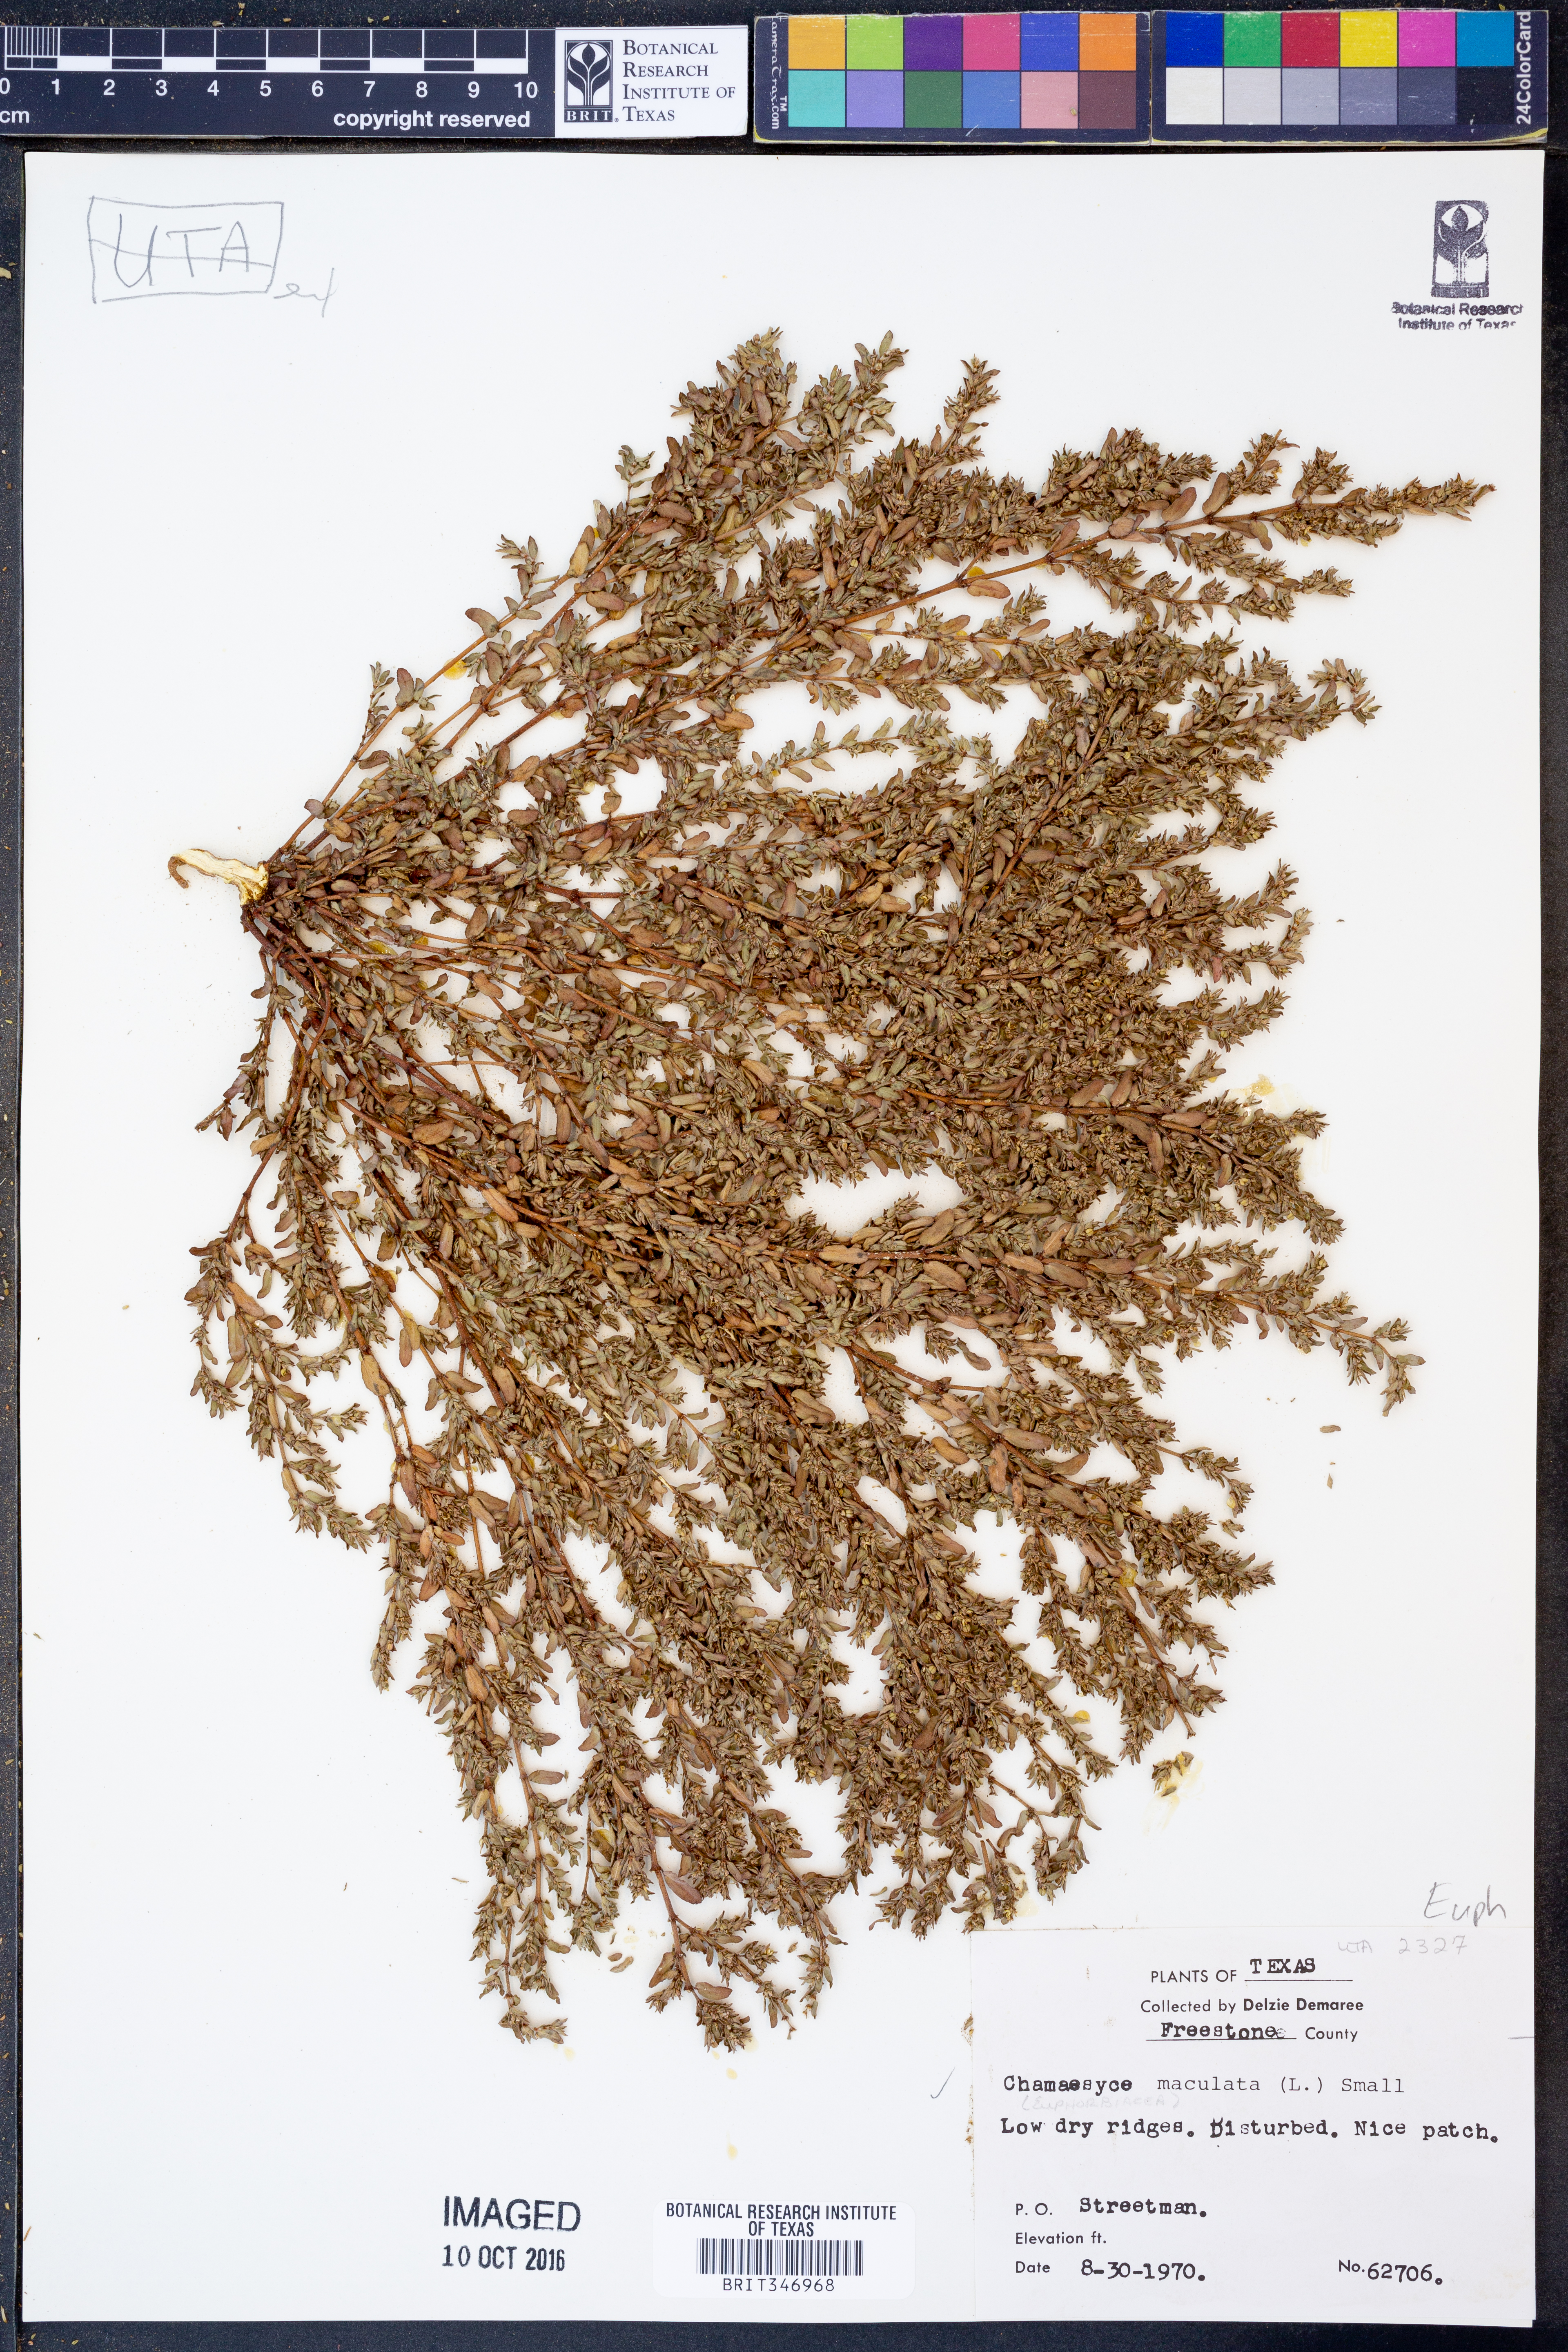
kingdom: Plantae
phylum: Tracheophyta
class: Magnoliopsida
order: Malpighiales
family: Euphorbiaceae
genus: Euphorbia
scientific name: Euphorbia maculata
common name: Spotted spurge
